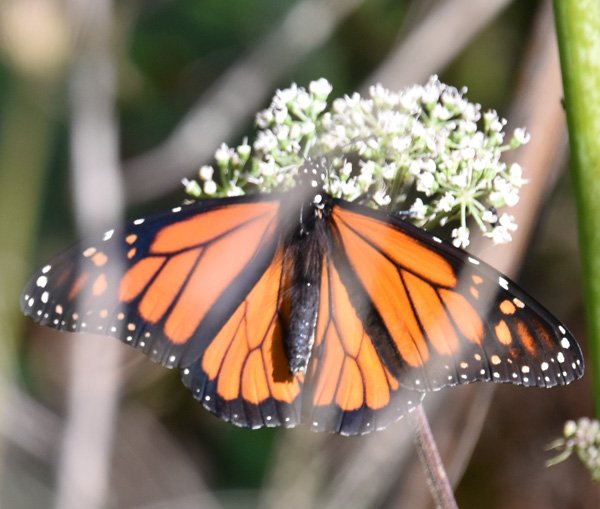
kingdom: Animalia
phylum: Arthropoda
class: Insecta
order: Lepidoptera
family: Nymphalidae
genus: Danaus
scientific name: Danaus plexippus
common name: Monarch
